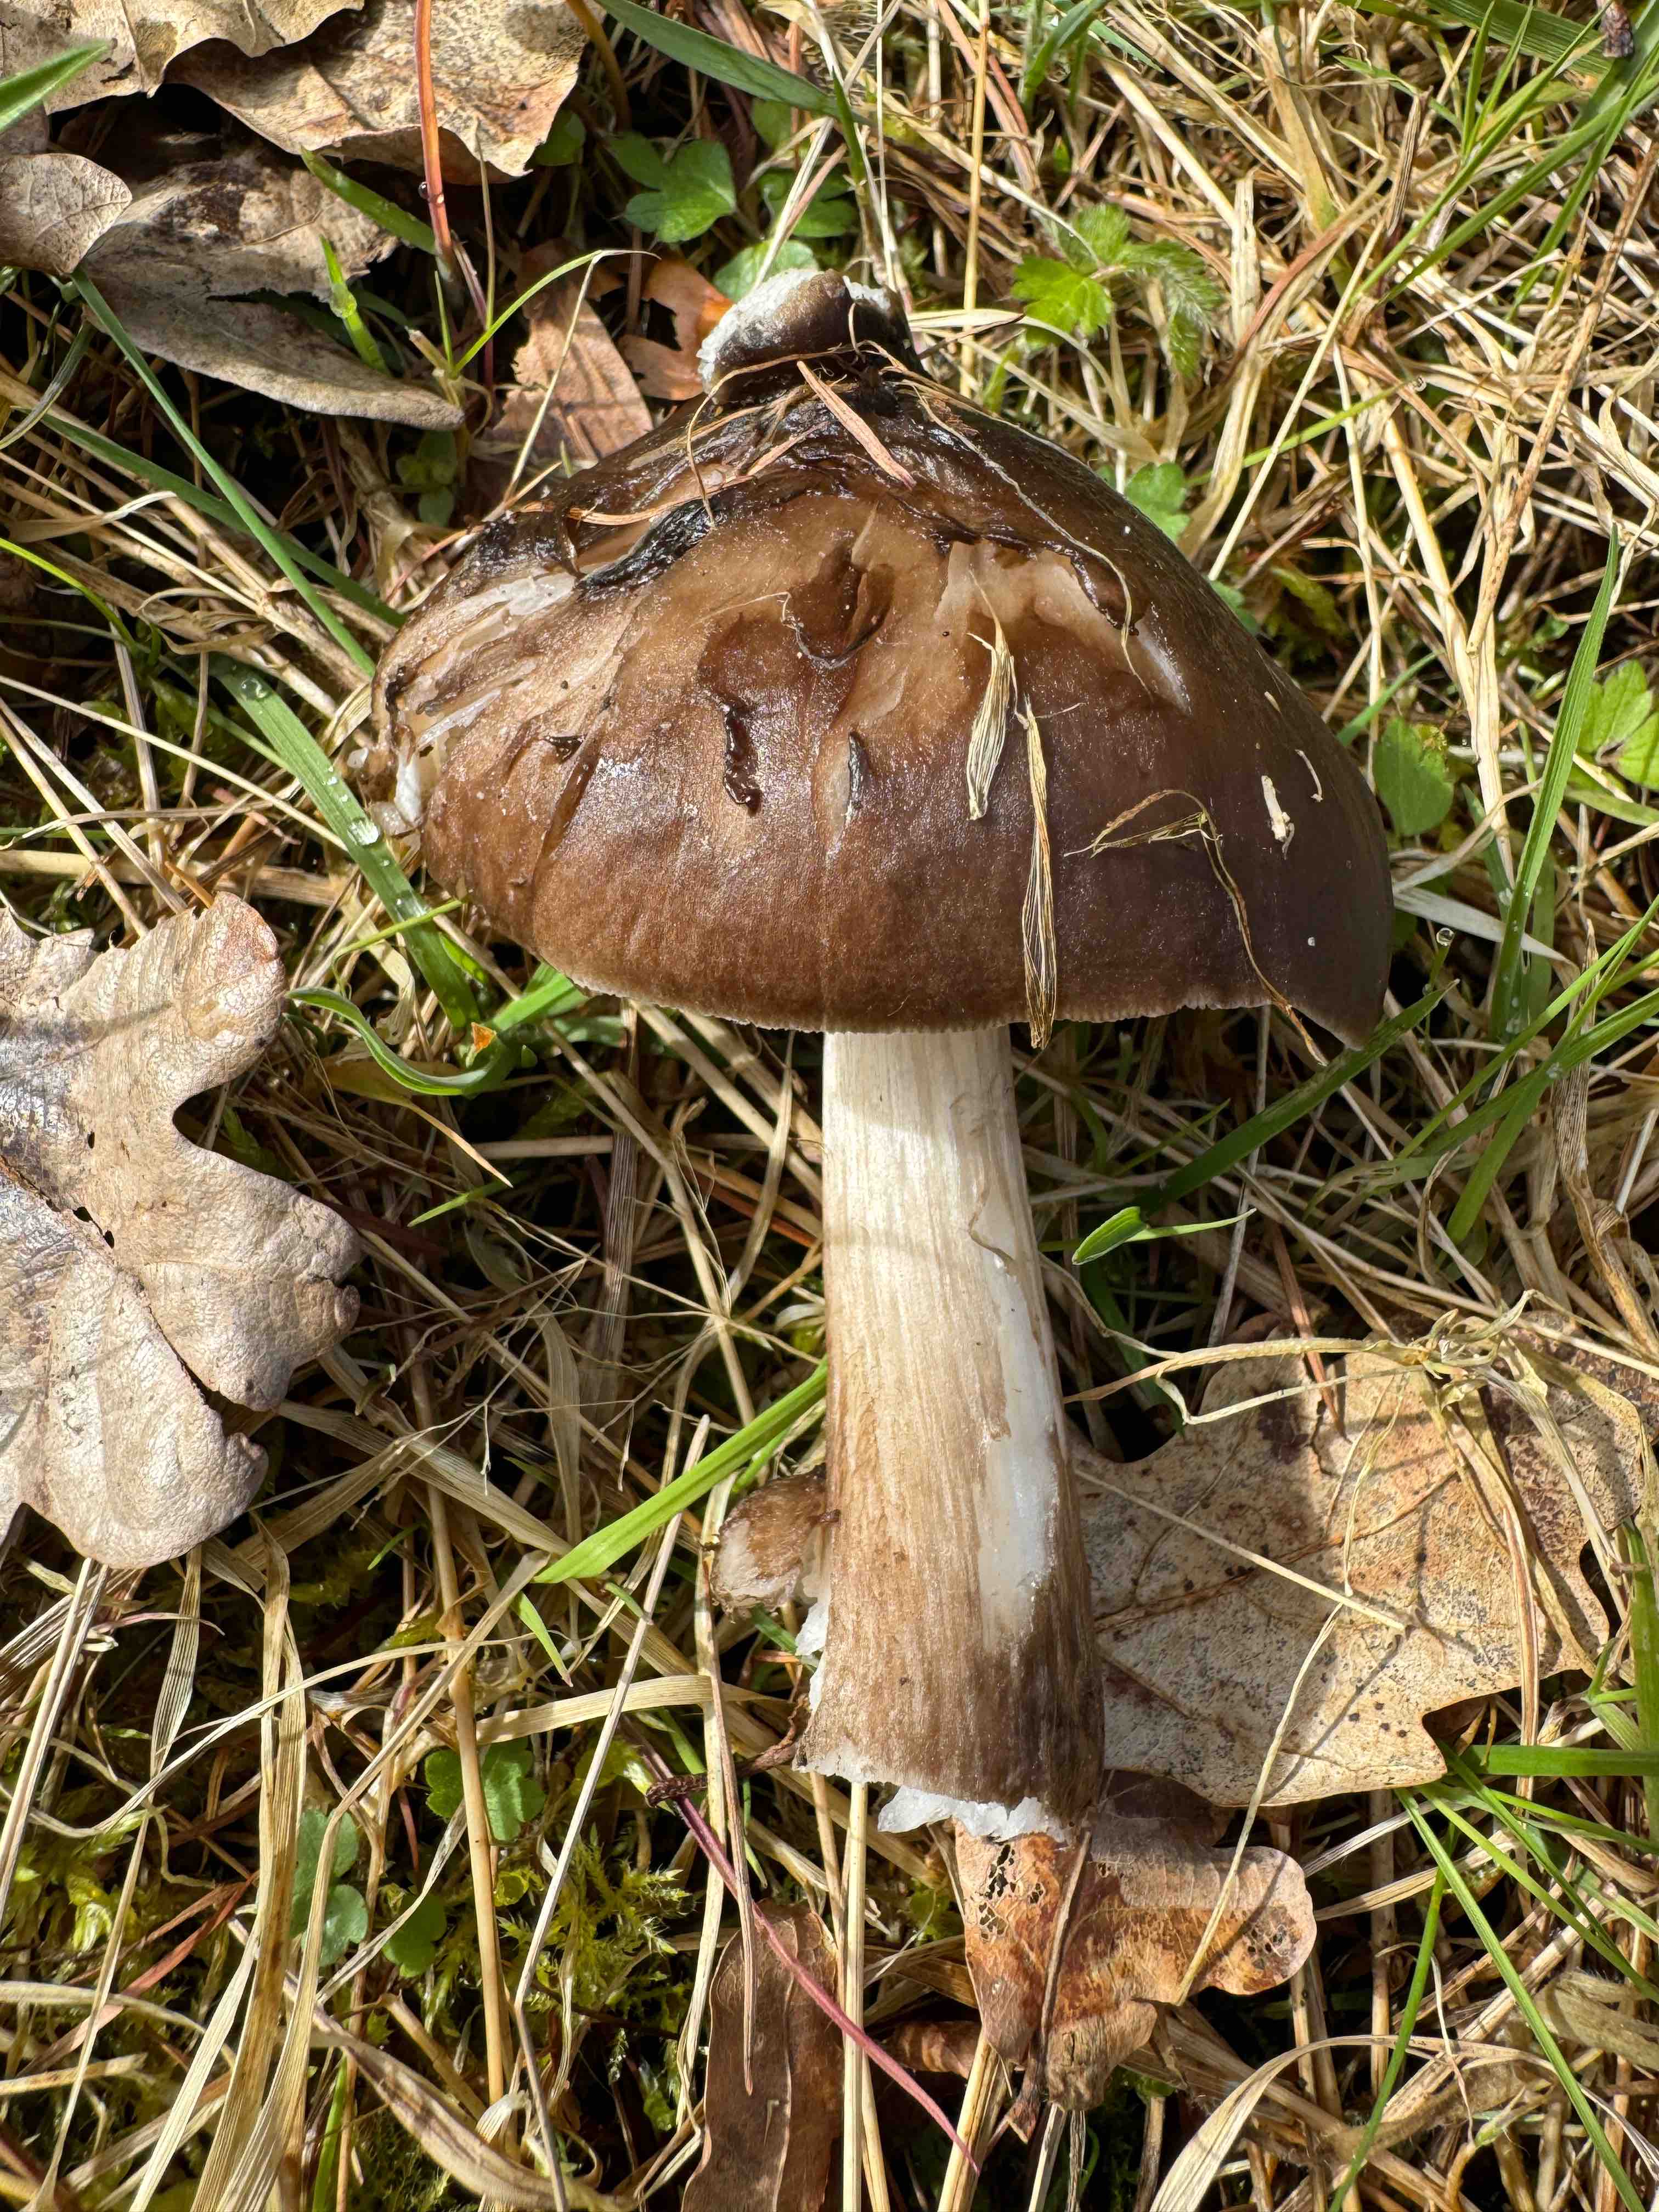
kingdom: Fungi
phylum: Basidiomycota
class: Agaricomycetes
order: Agaricales
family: Pluteaceae
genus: Pluteus
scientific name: Pluteus cervinus
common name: sodfarvet skærmhat
